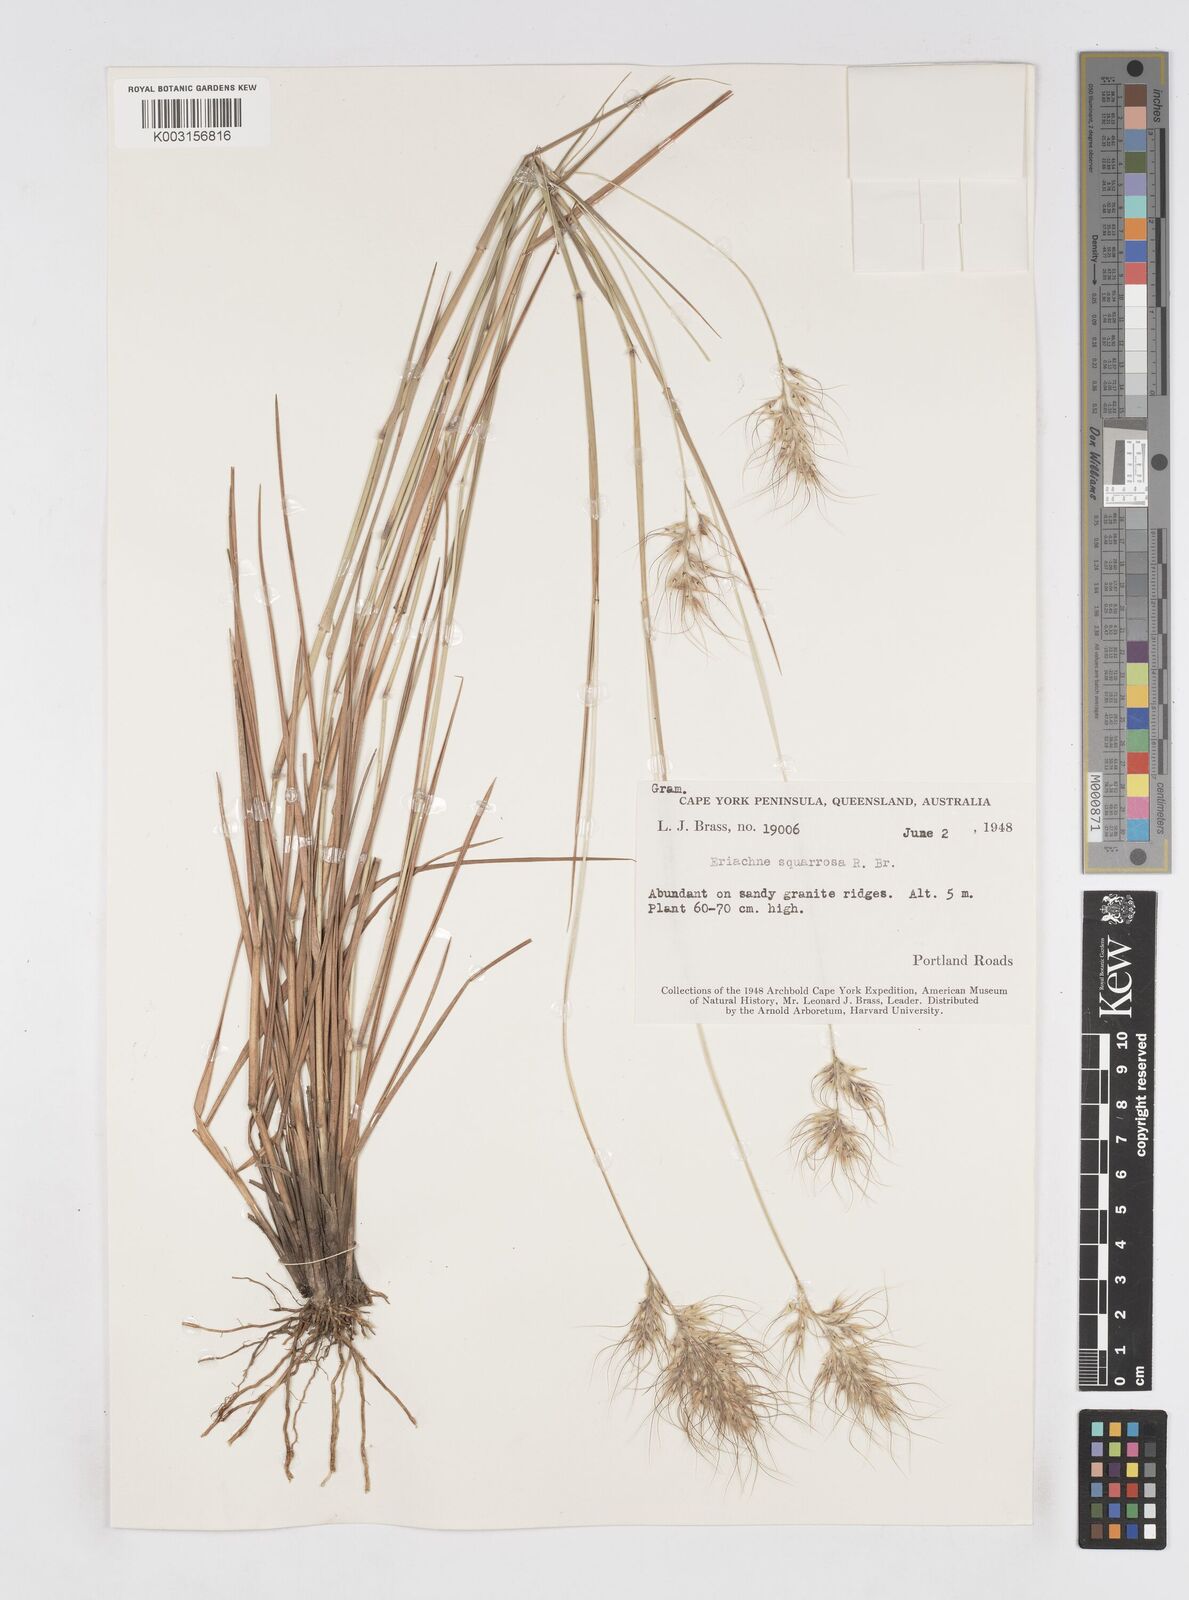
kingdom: Plantae
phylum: Tracheophyta
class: Liliopsida
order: Poales
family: Poaceae
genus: Eriachne
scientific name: Eriachne squarrosa
